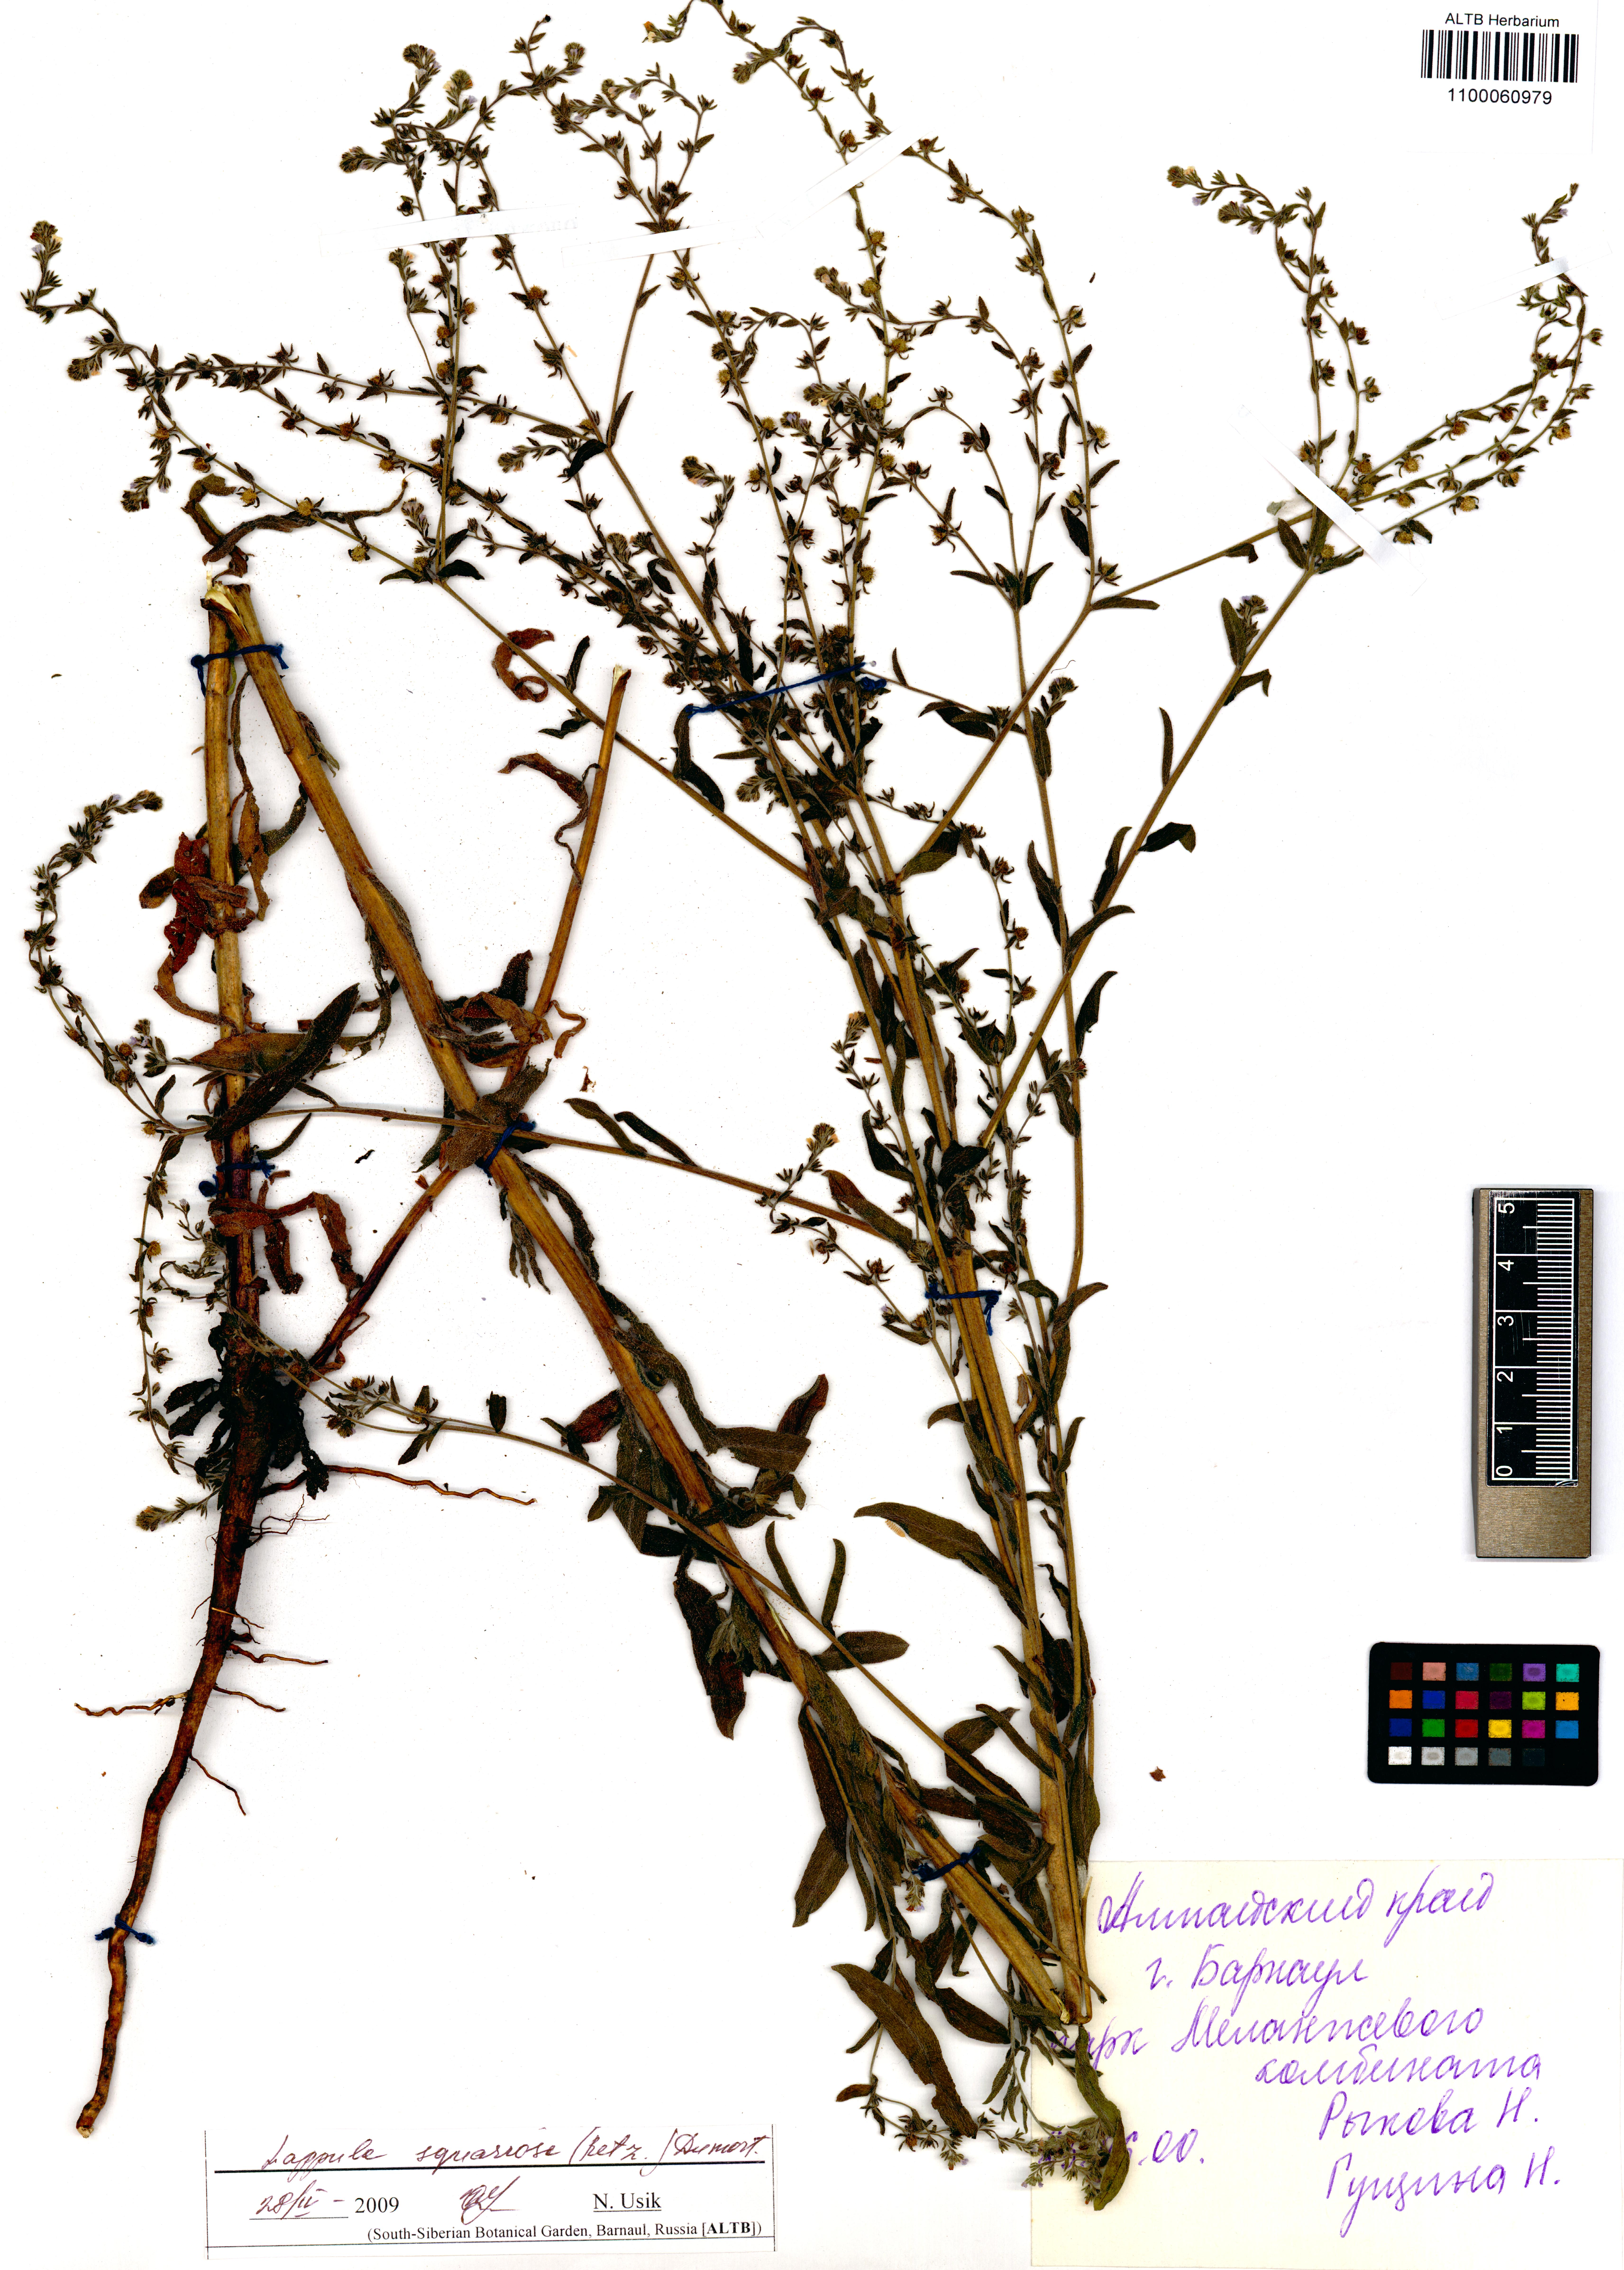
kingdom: Plantae
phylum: Tracheophyta
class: Magnoliopsida
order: Boraginales
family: Boraginaceae
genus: Lappula
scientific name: Lappula squarrosa
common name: European stickseed
